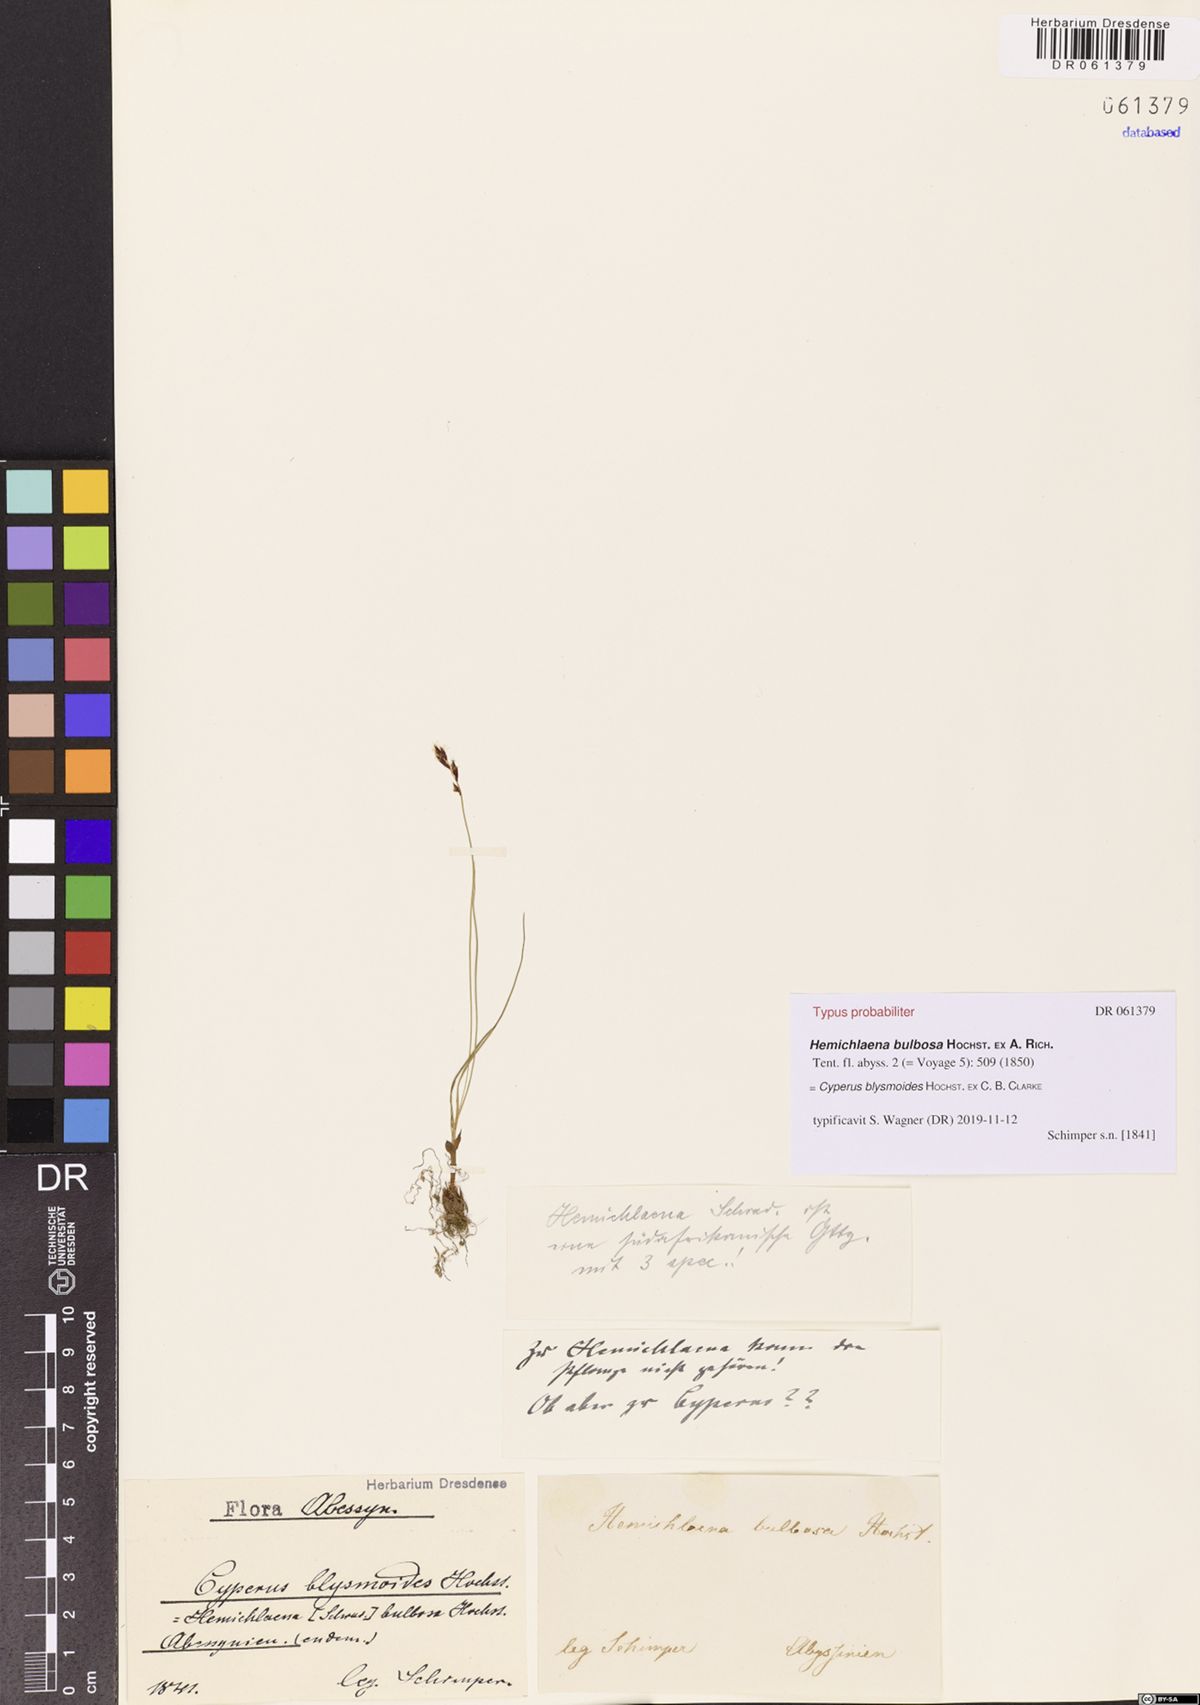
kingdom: Plantae
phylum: Tracheophyta
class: Liliopsida
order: Poales
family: Cyperaceae
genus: Cyperus
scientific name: Cyperus blysmoides
